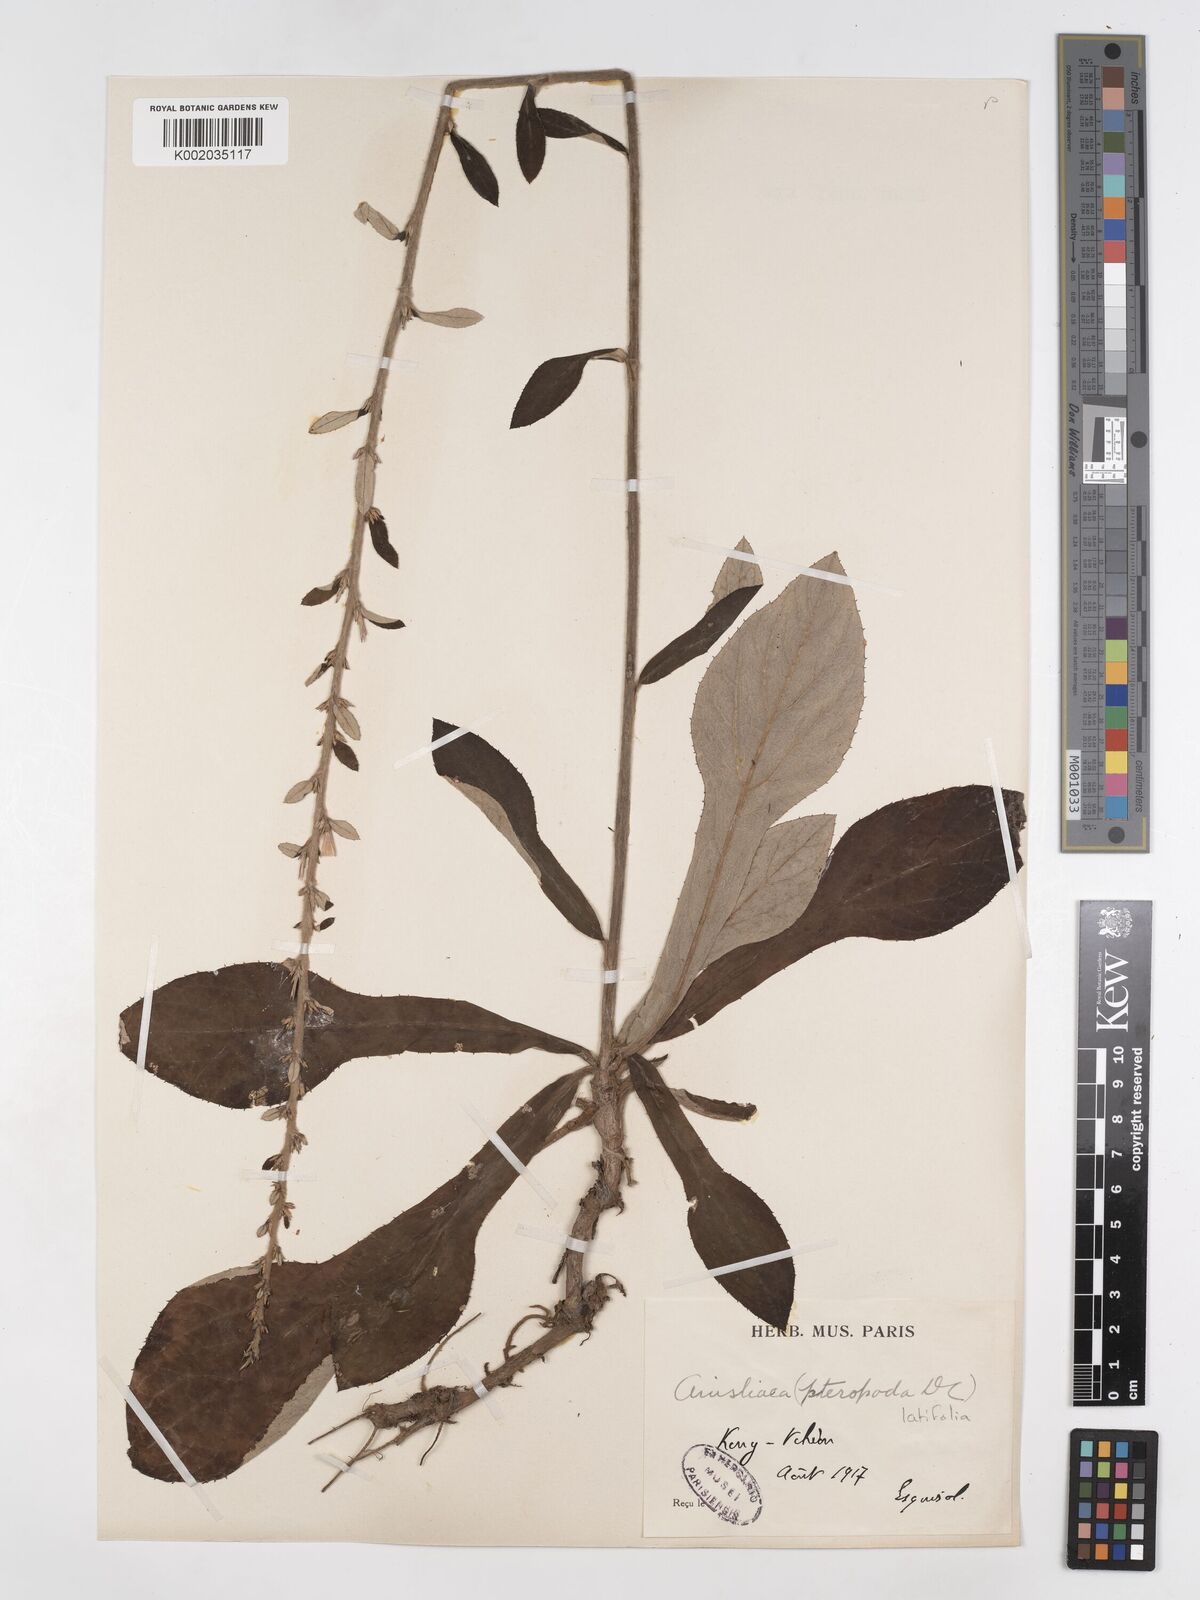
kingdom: Plantae
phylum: Tracheophyta
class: Magnoliopsida
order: Asterales
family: Asteraceae
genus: Ainsliaea
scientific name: Ainsliaea latifolia
